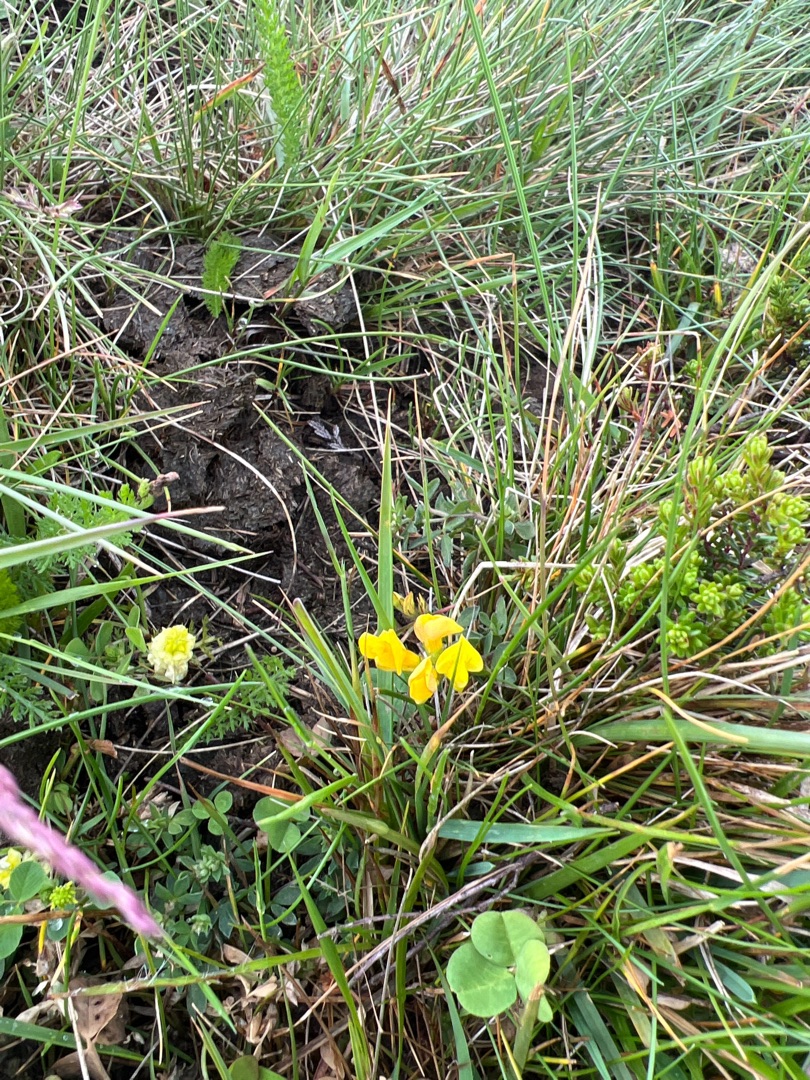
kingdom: Plantae
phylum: Tracheophyta
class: Magnoliopsida
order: Fabales
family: Fabaceae
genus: Lotus
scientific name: Lotus corniculatus
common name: Almindelig kællingetand
